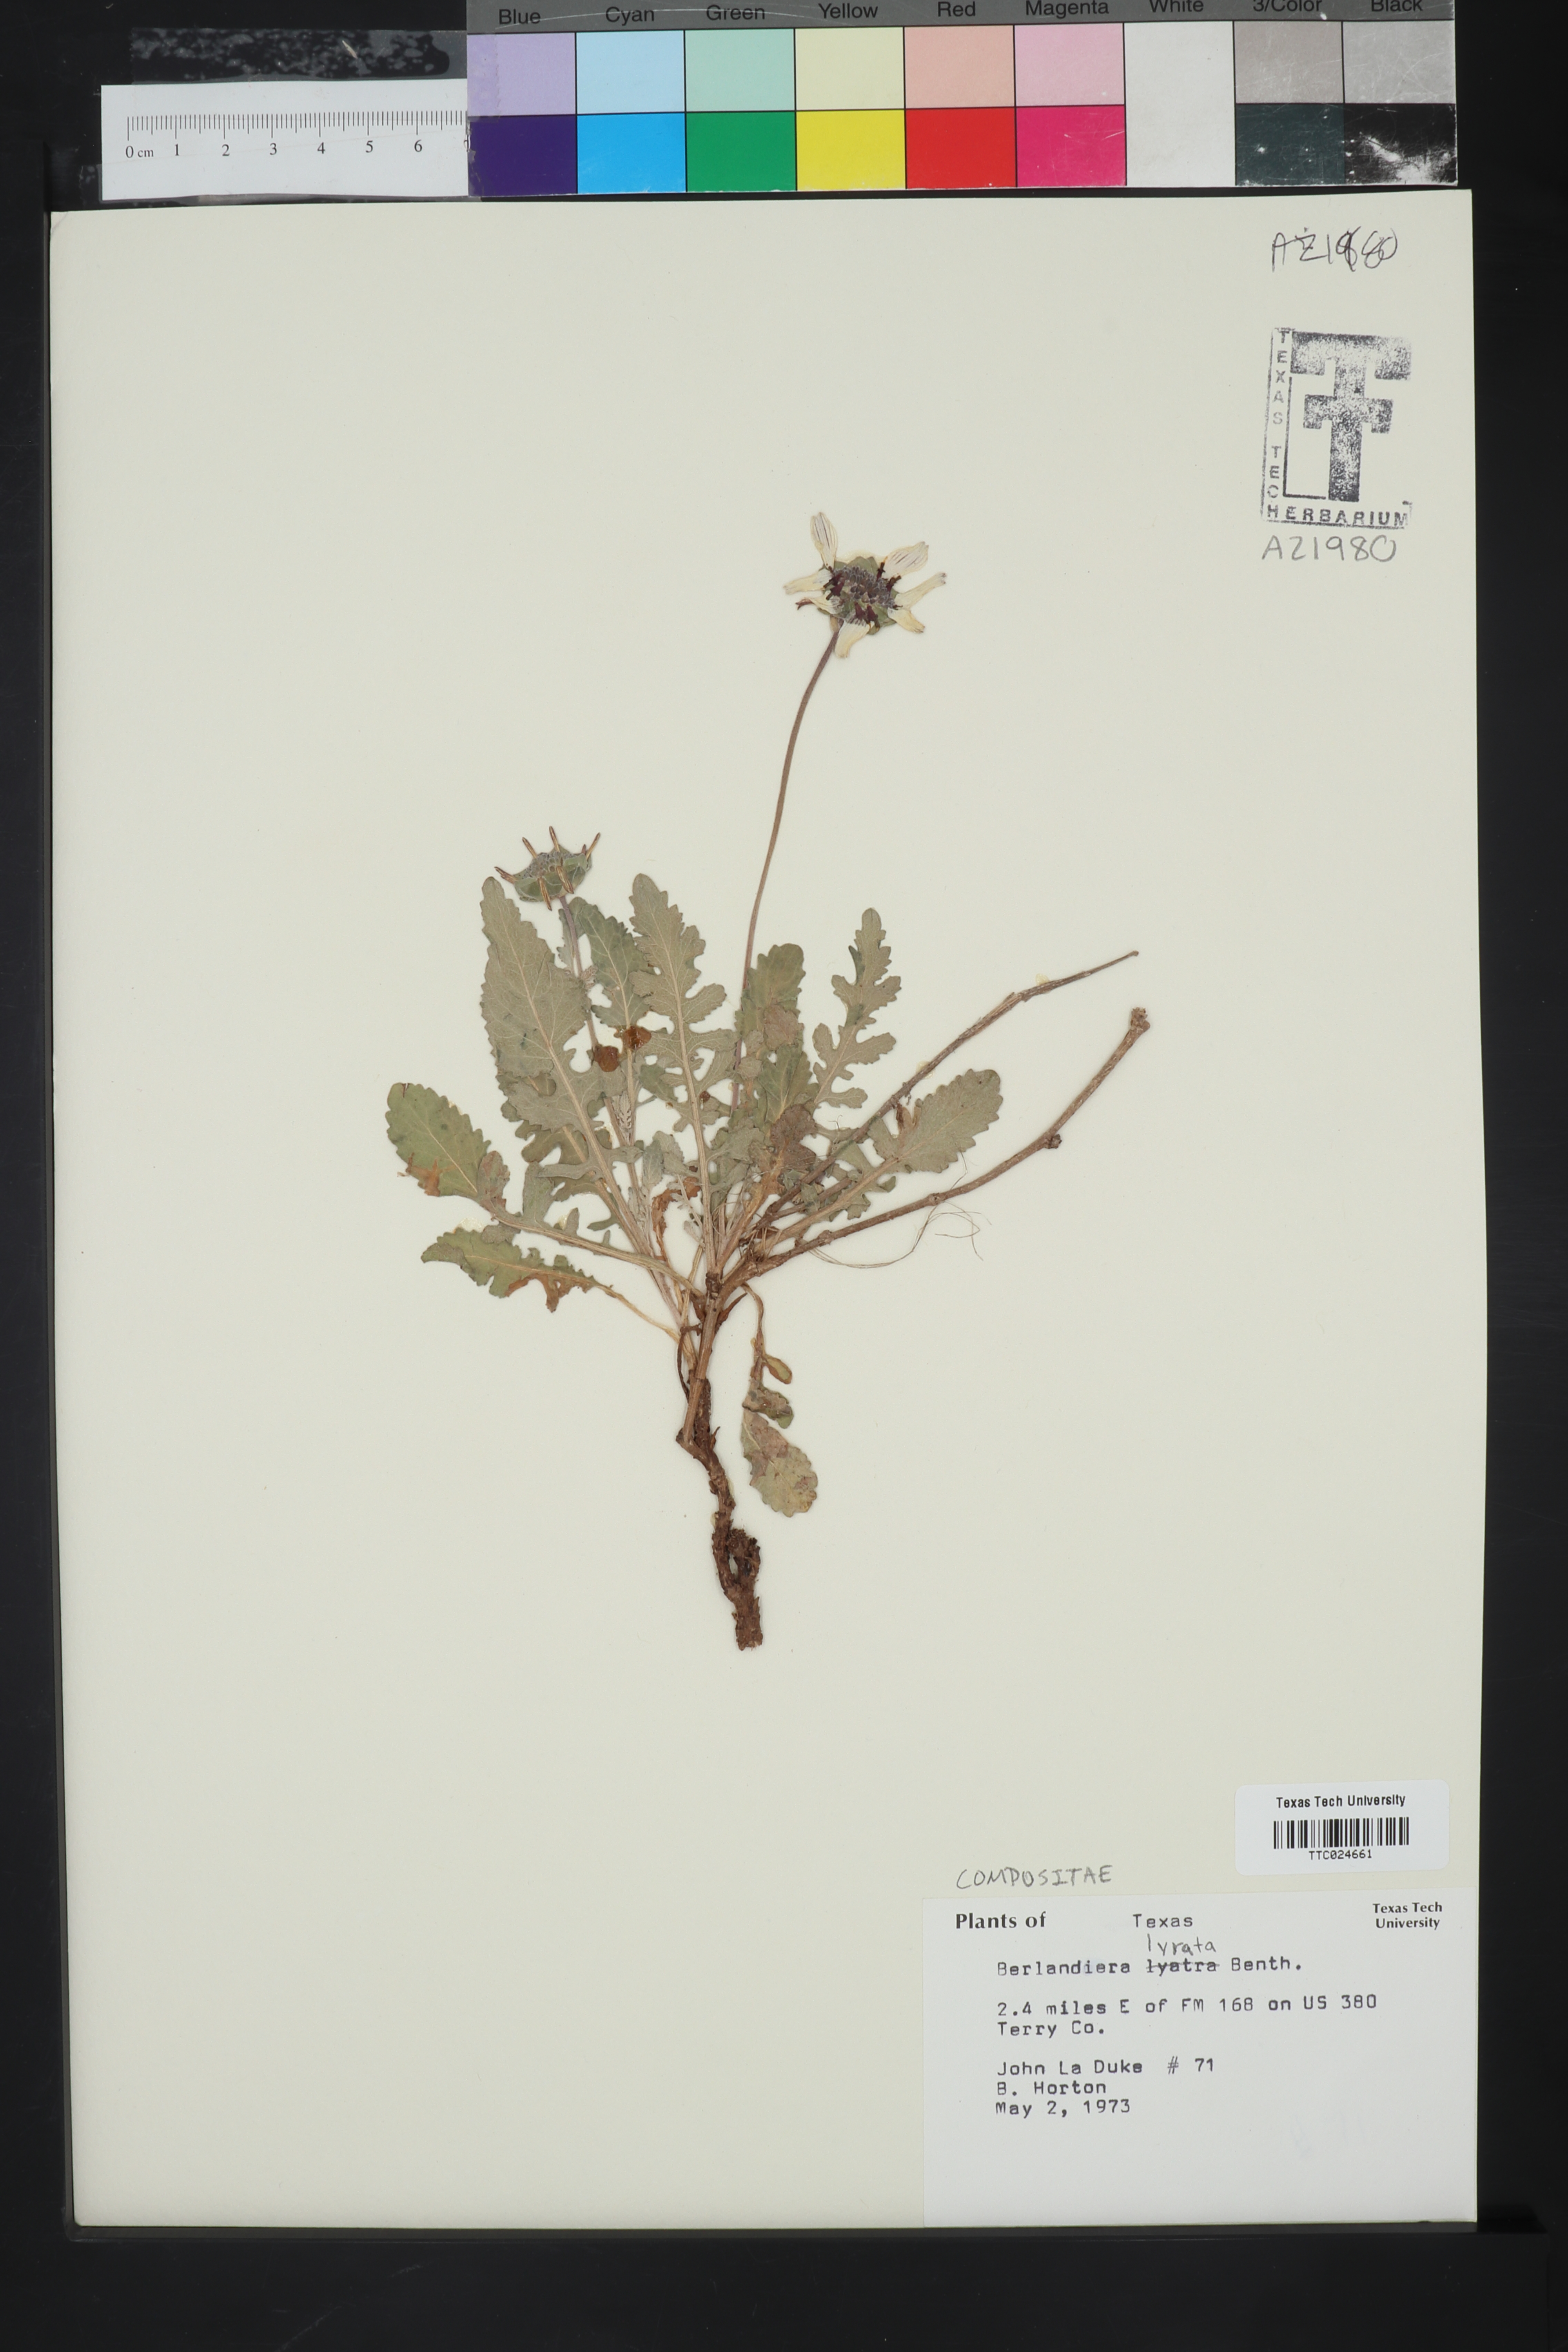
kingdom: Plantae
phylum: Tracheophyta
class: Magnoliopsida
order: Asterales
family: Asteraceae
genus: Berlandiera
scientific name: Berlandiera lyrata
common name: Chocolate-flower
